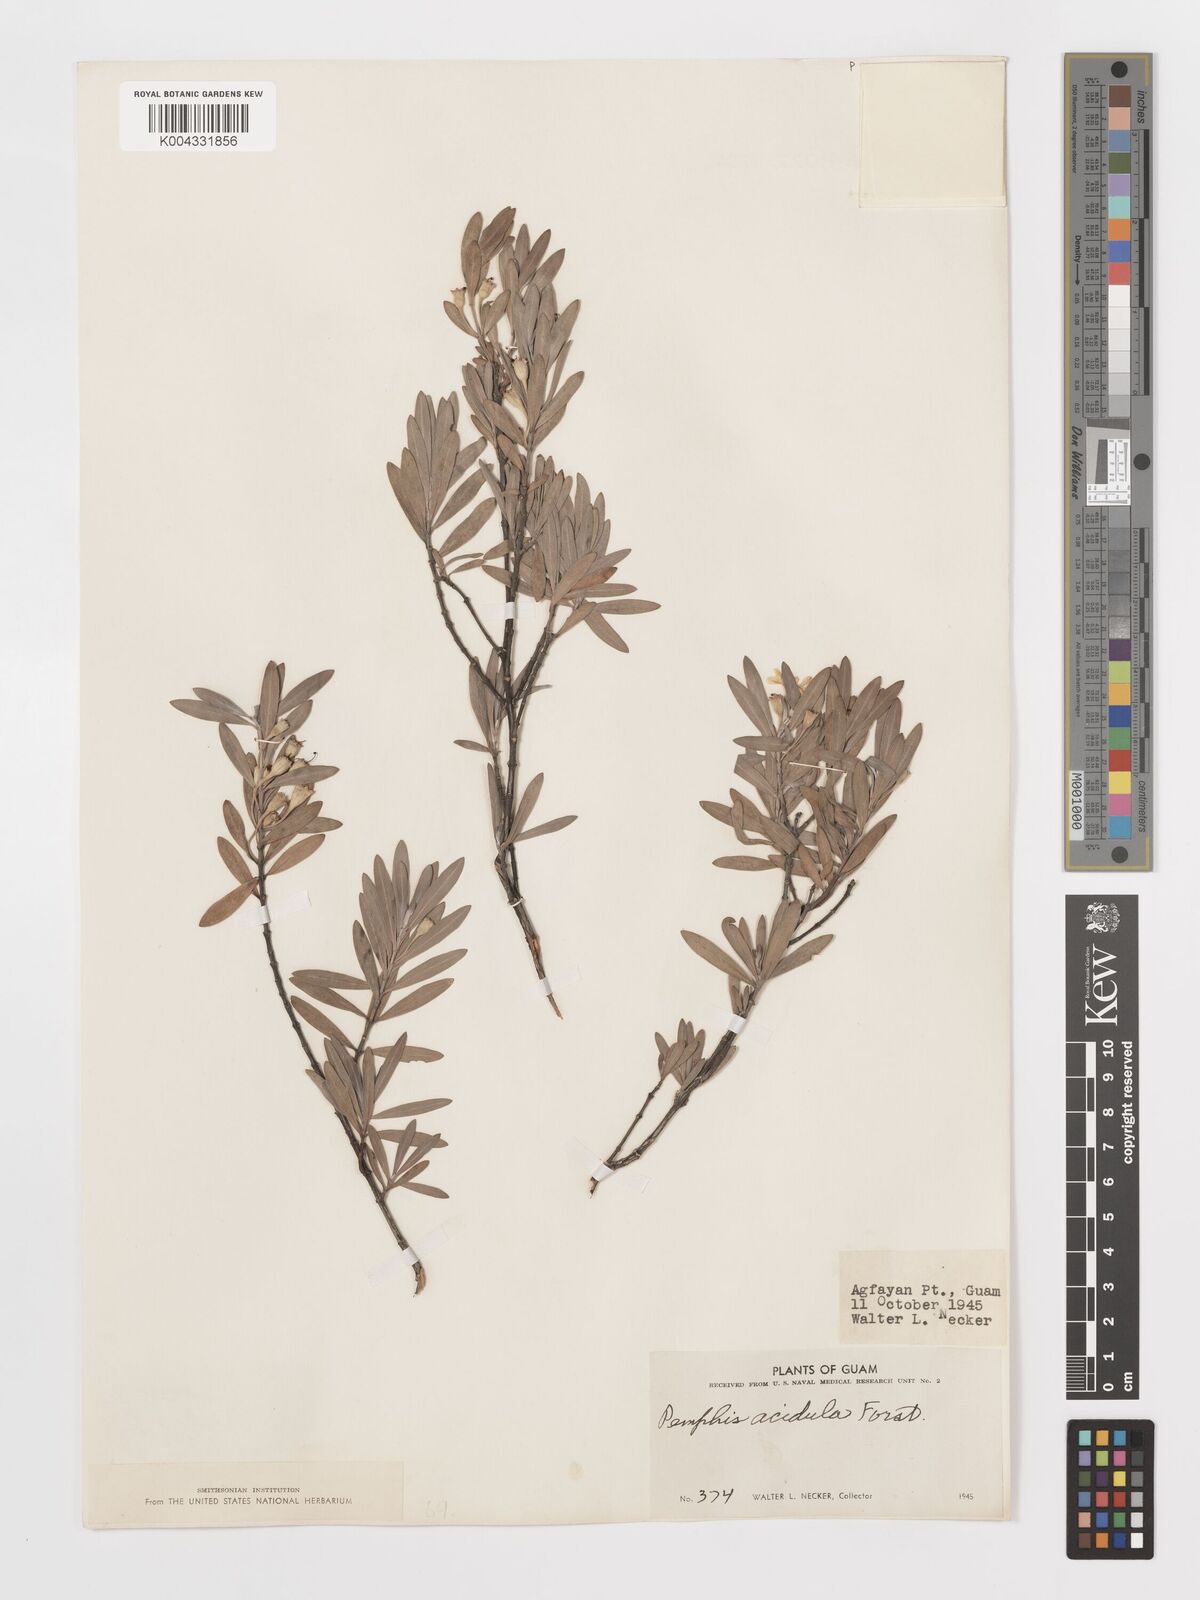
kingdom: Plantae
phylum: Tracheophyta
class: Magnoliopsida
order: Myrtales
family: Lythraceae
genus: Pemphis
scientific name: Pemphis acidula
